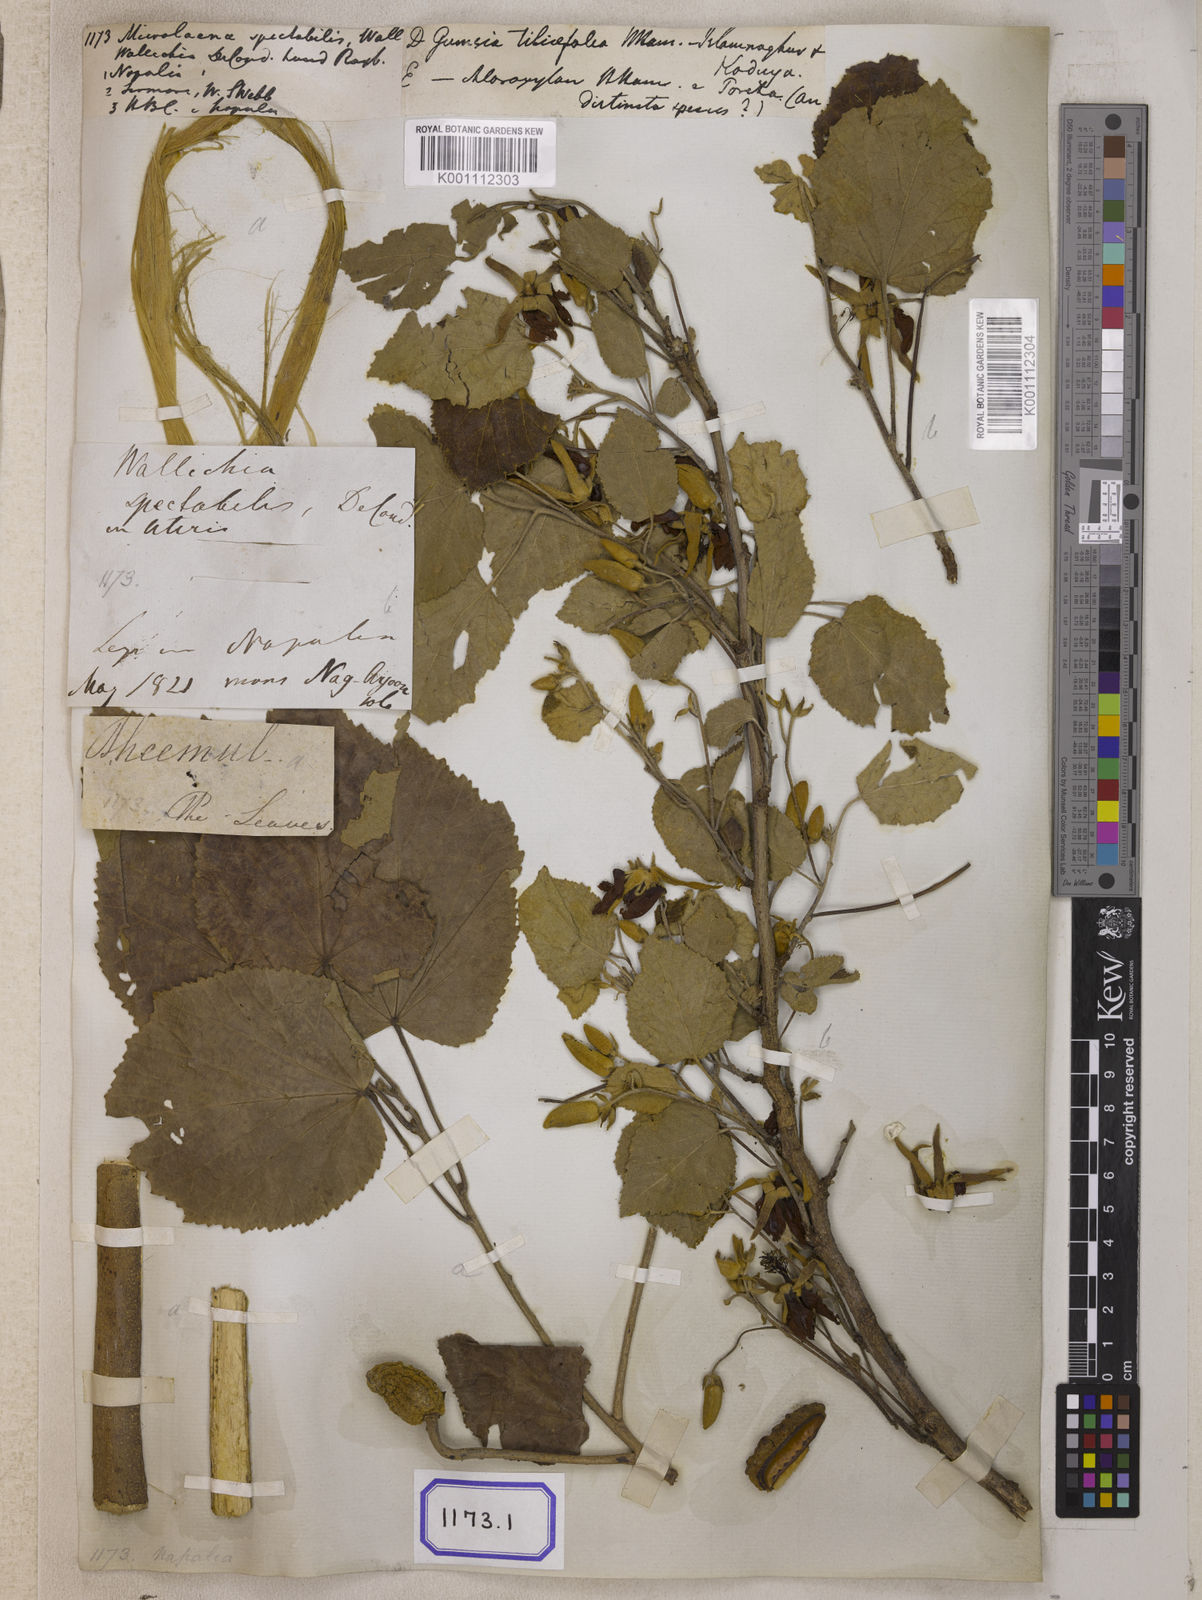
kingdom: Plantae
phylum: Tracheophyta
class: Liliopsida
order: Poales
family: Poaceae
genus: Microlaena
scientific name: Microlaena
